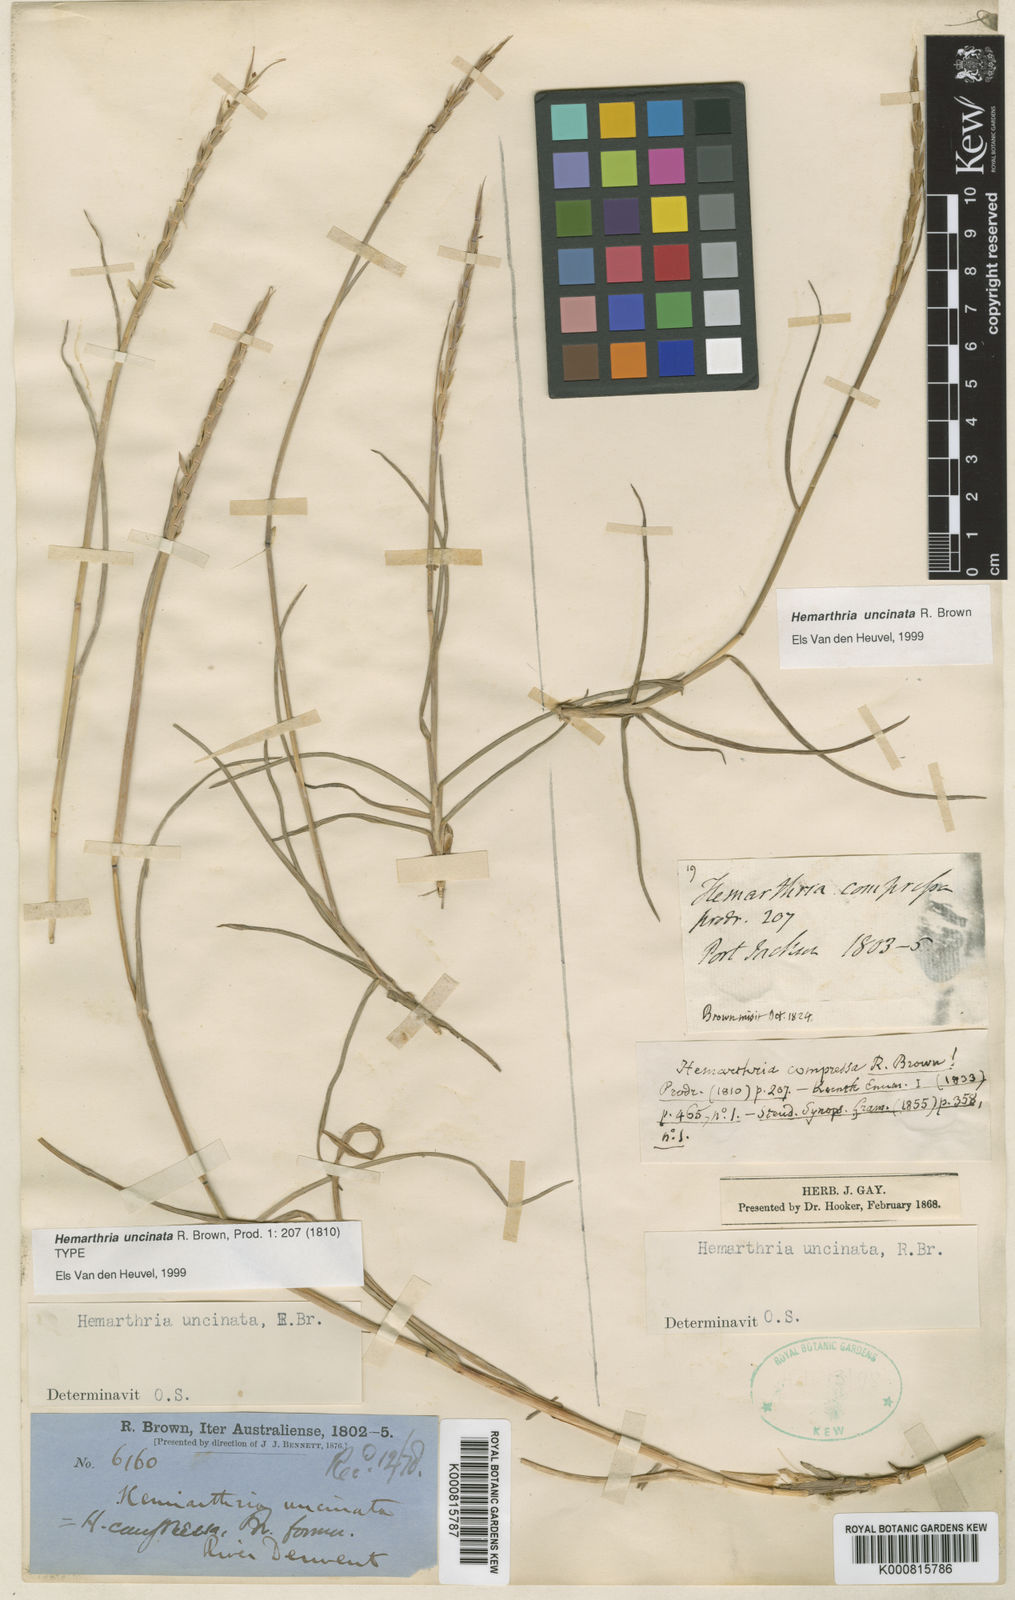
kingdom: Plantae
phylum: Tracheophyta
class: Liliopsida
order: Poales
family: Poaceae
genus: Hemarthria
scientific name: Hemarthria uncinata
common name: Matgrass
